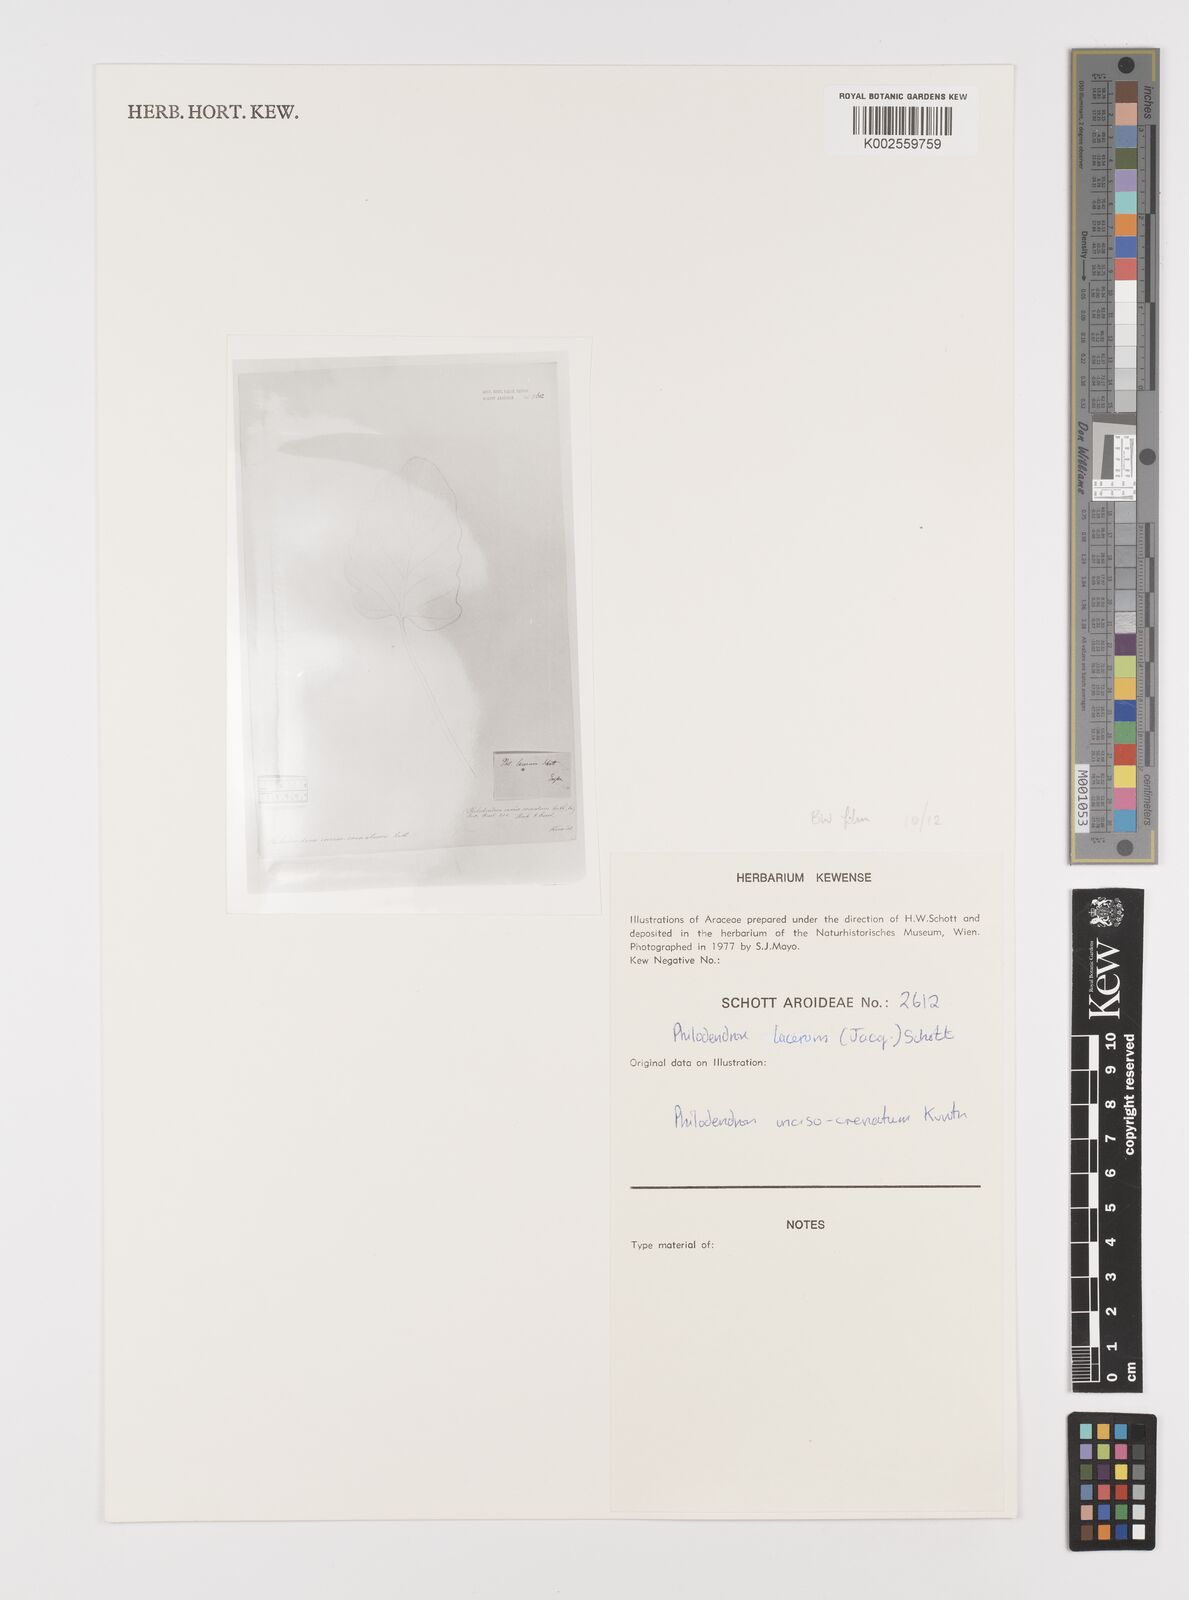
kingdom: Plantae
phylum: Tracheophyta
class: Liliopsida
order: Alismatales
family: Araceae
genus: Philodendron
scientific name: Philodendron lacerum
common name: Philodendron
